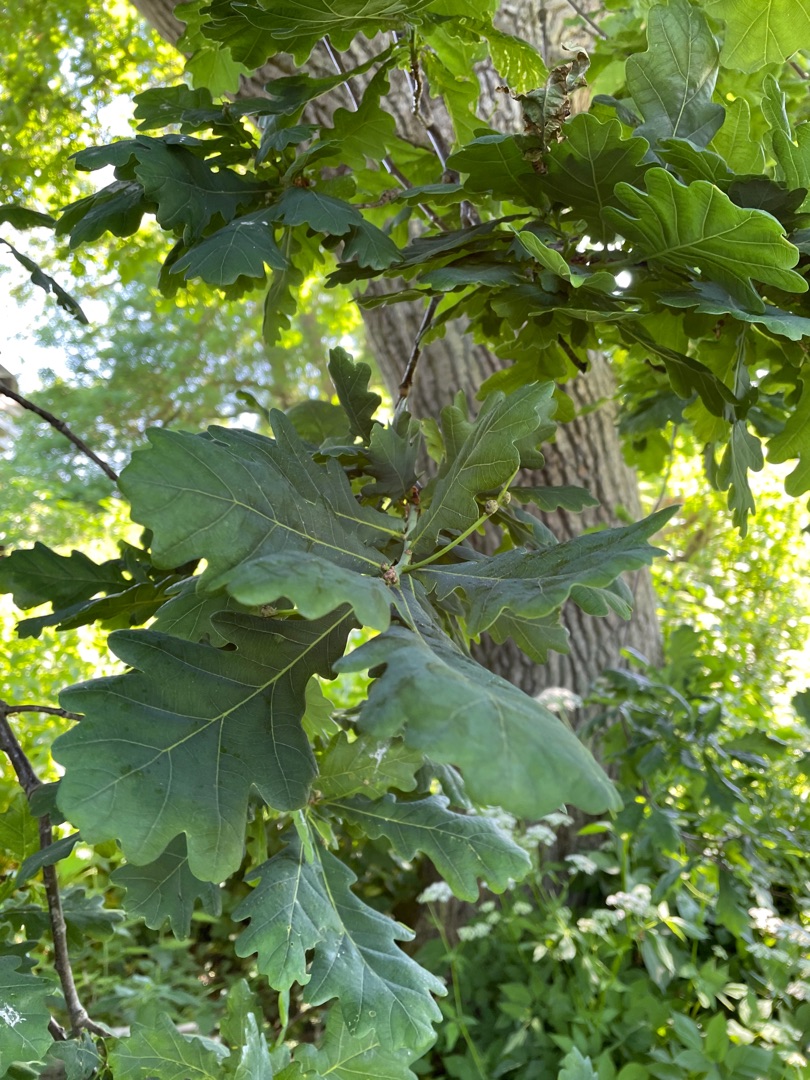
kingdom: Plantae
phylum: Tracheophyta
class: Magnoliopsida
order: Fagales
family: Fagaceae
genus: Quercus
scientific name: Quercus robur
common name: Stilk-eg/almindelig eg
